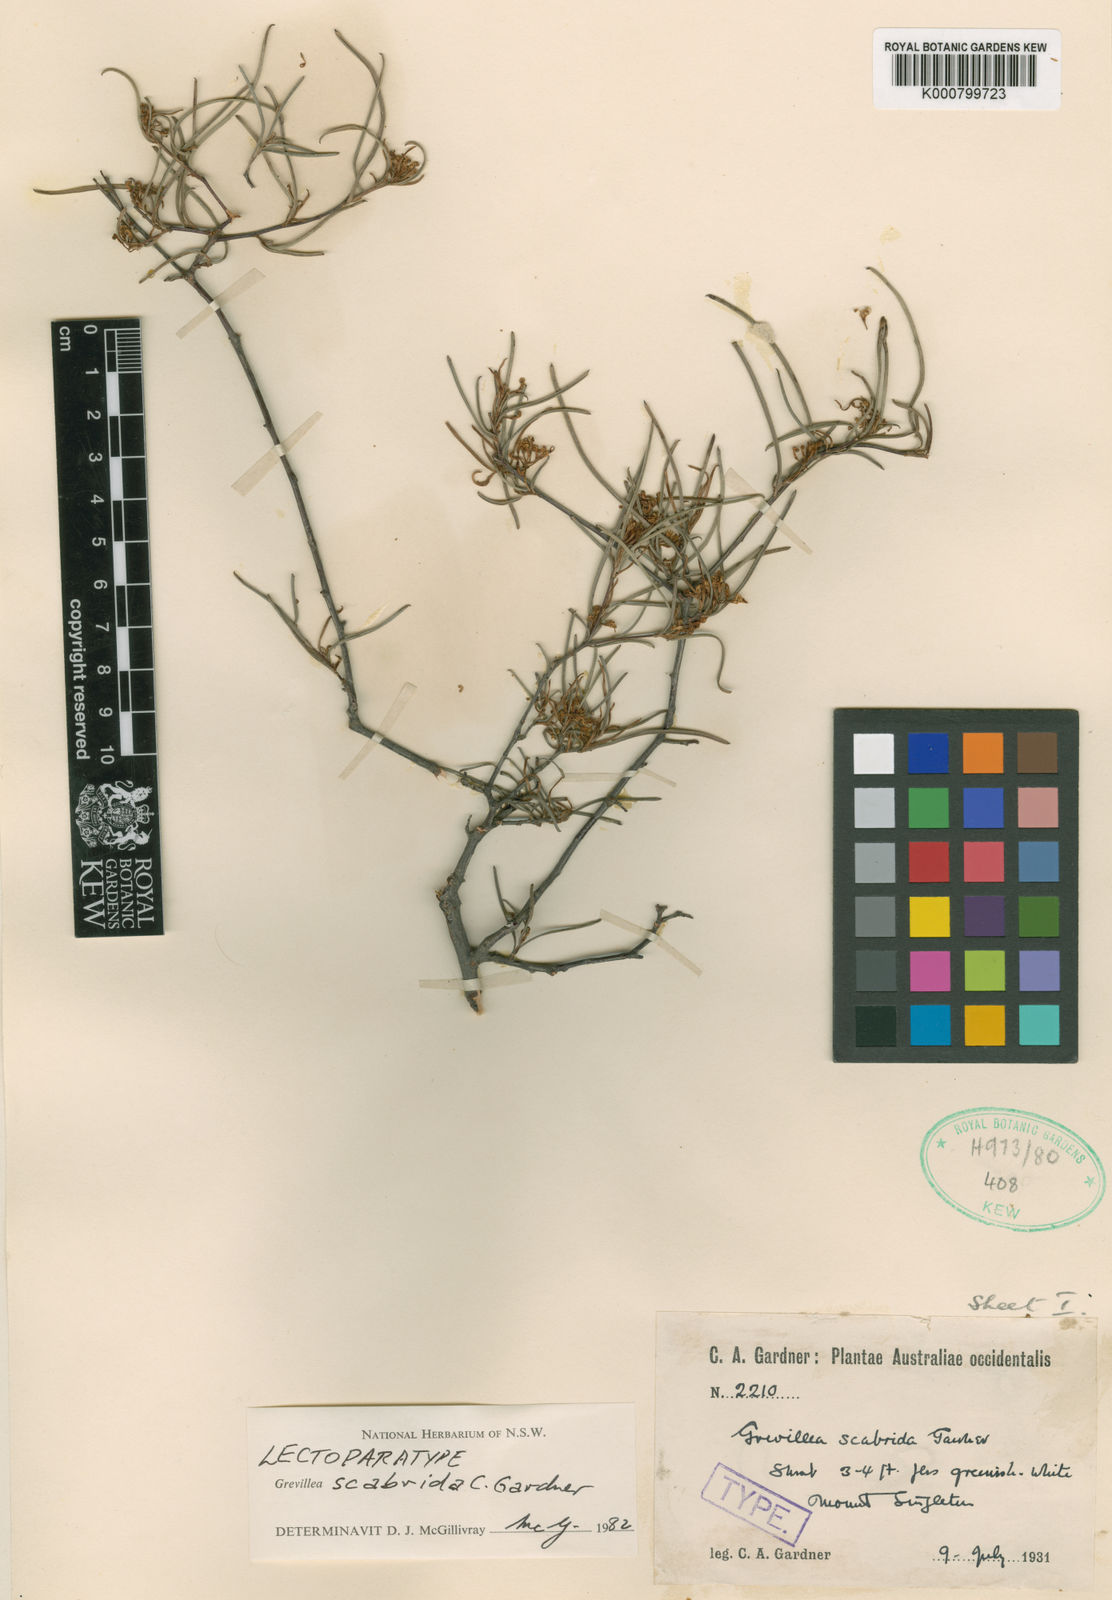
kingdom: Plantae
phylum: Tracheophyta
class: Magnoliopsida
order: Proteales
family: Proteaceae
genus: Grevillea
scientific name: Grevillea scabrida
